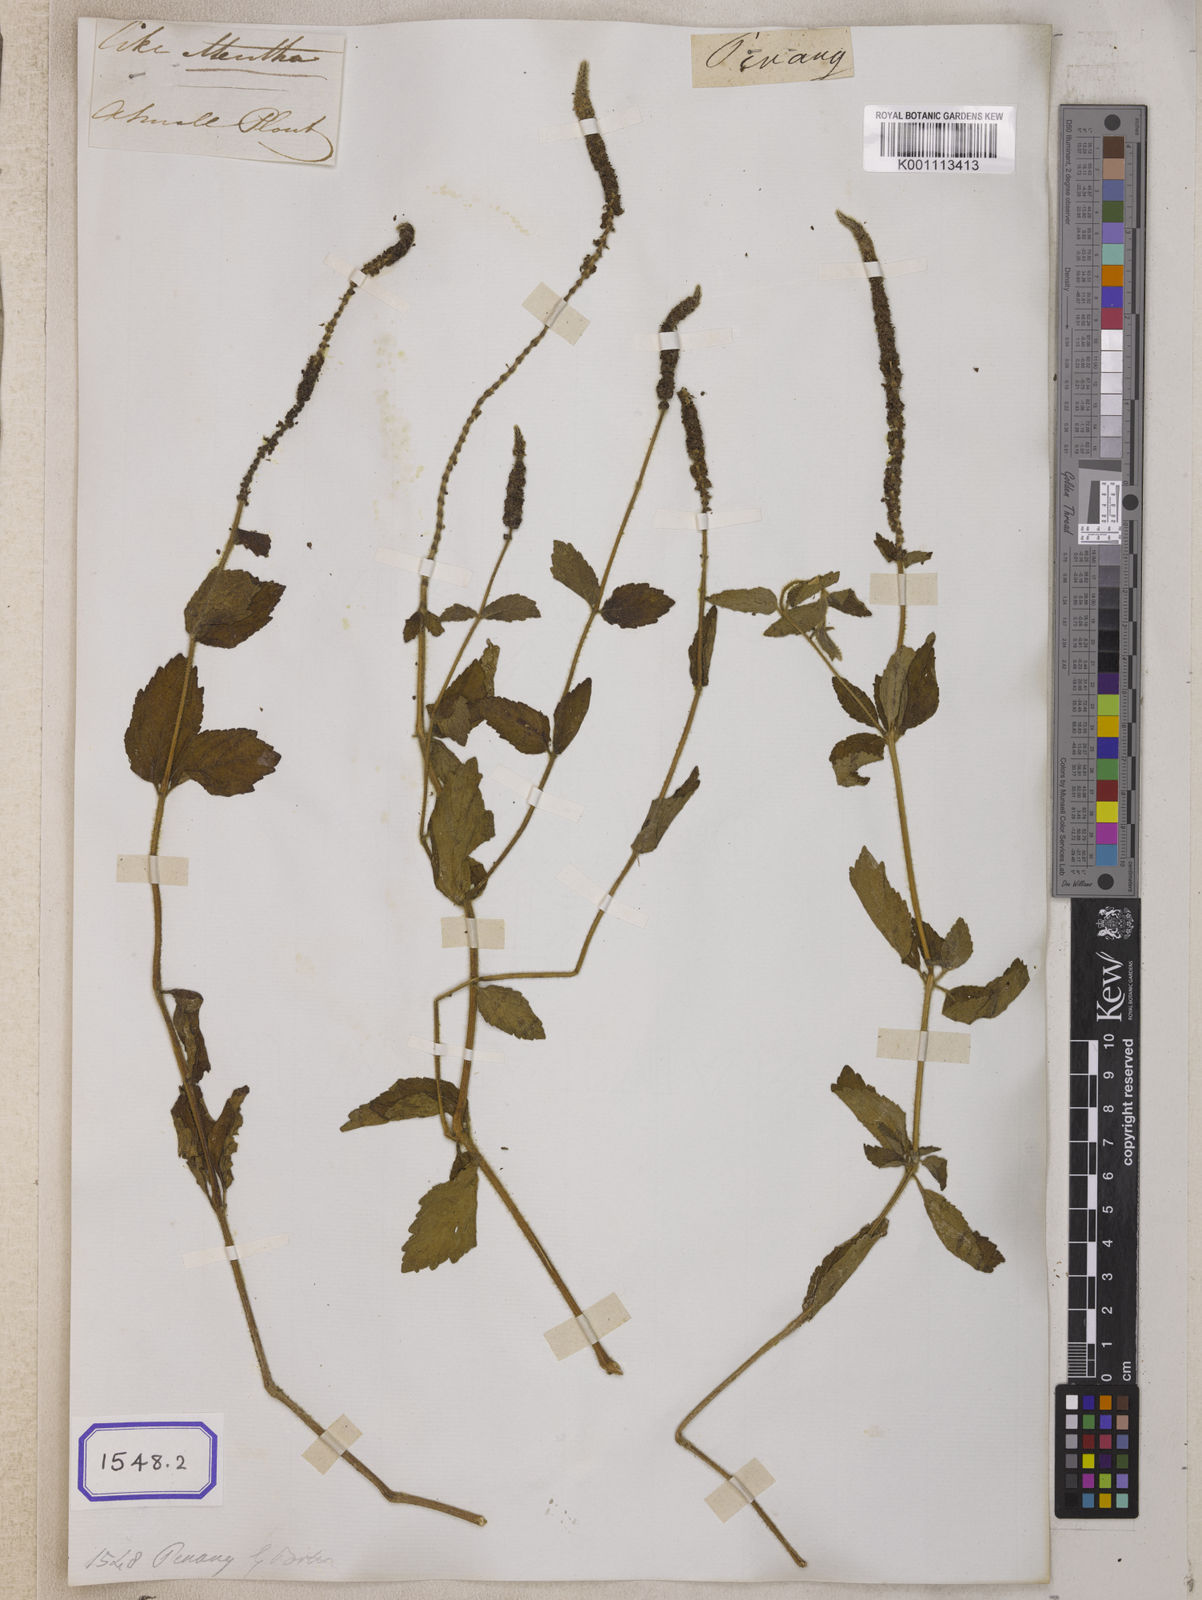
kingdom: Plantae
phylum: Tracheophyta
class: Magnoliopsida
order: Lamiales
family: Lamiaceae
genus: Pogostemon
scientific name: Pogostemon auricularius
